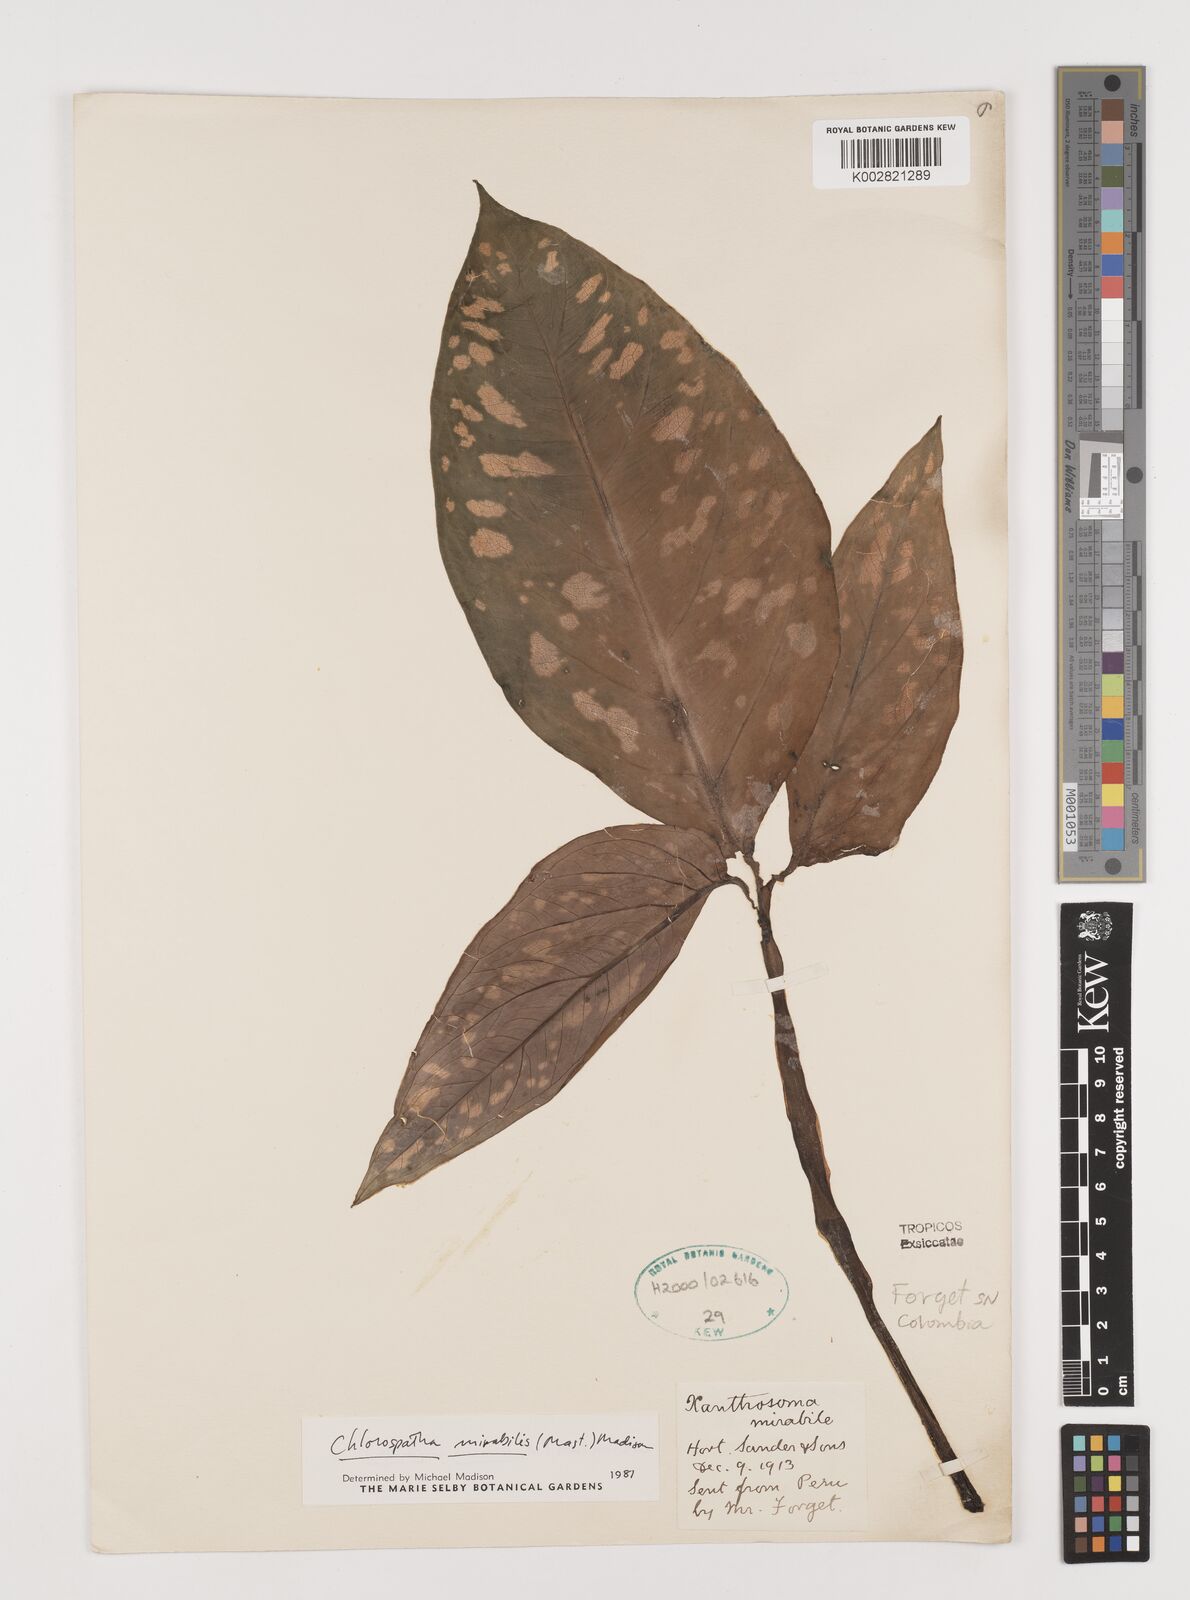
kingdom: Plantae
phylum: Tracheophyta
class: Liliopsida
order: Alismatales
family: Araceae
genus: Chlorospatha
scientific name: Chlorospatha mirabilis
